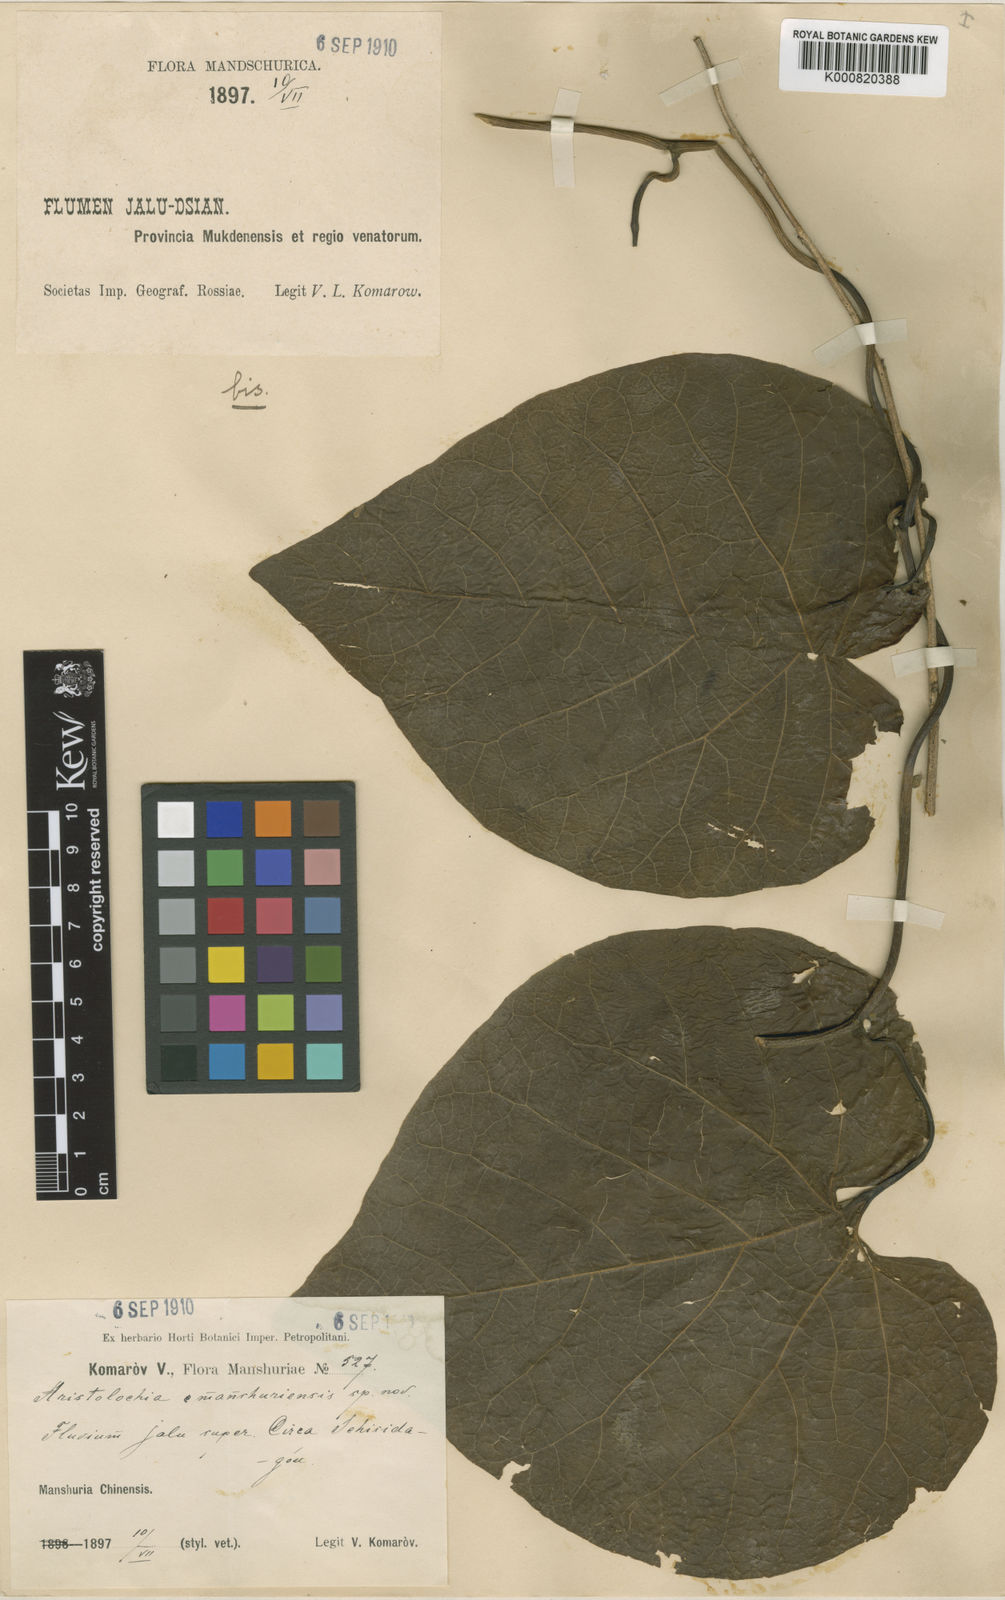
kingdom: Plantae
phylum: Tracheophyta
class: Magnoliopsida
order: Piperales
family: Aristolochiaceae
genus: Isotrema
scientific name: Isotrema
